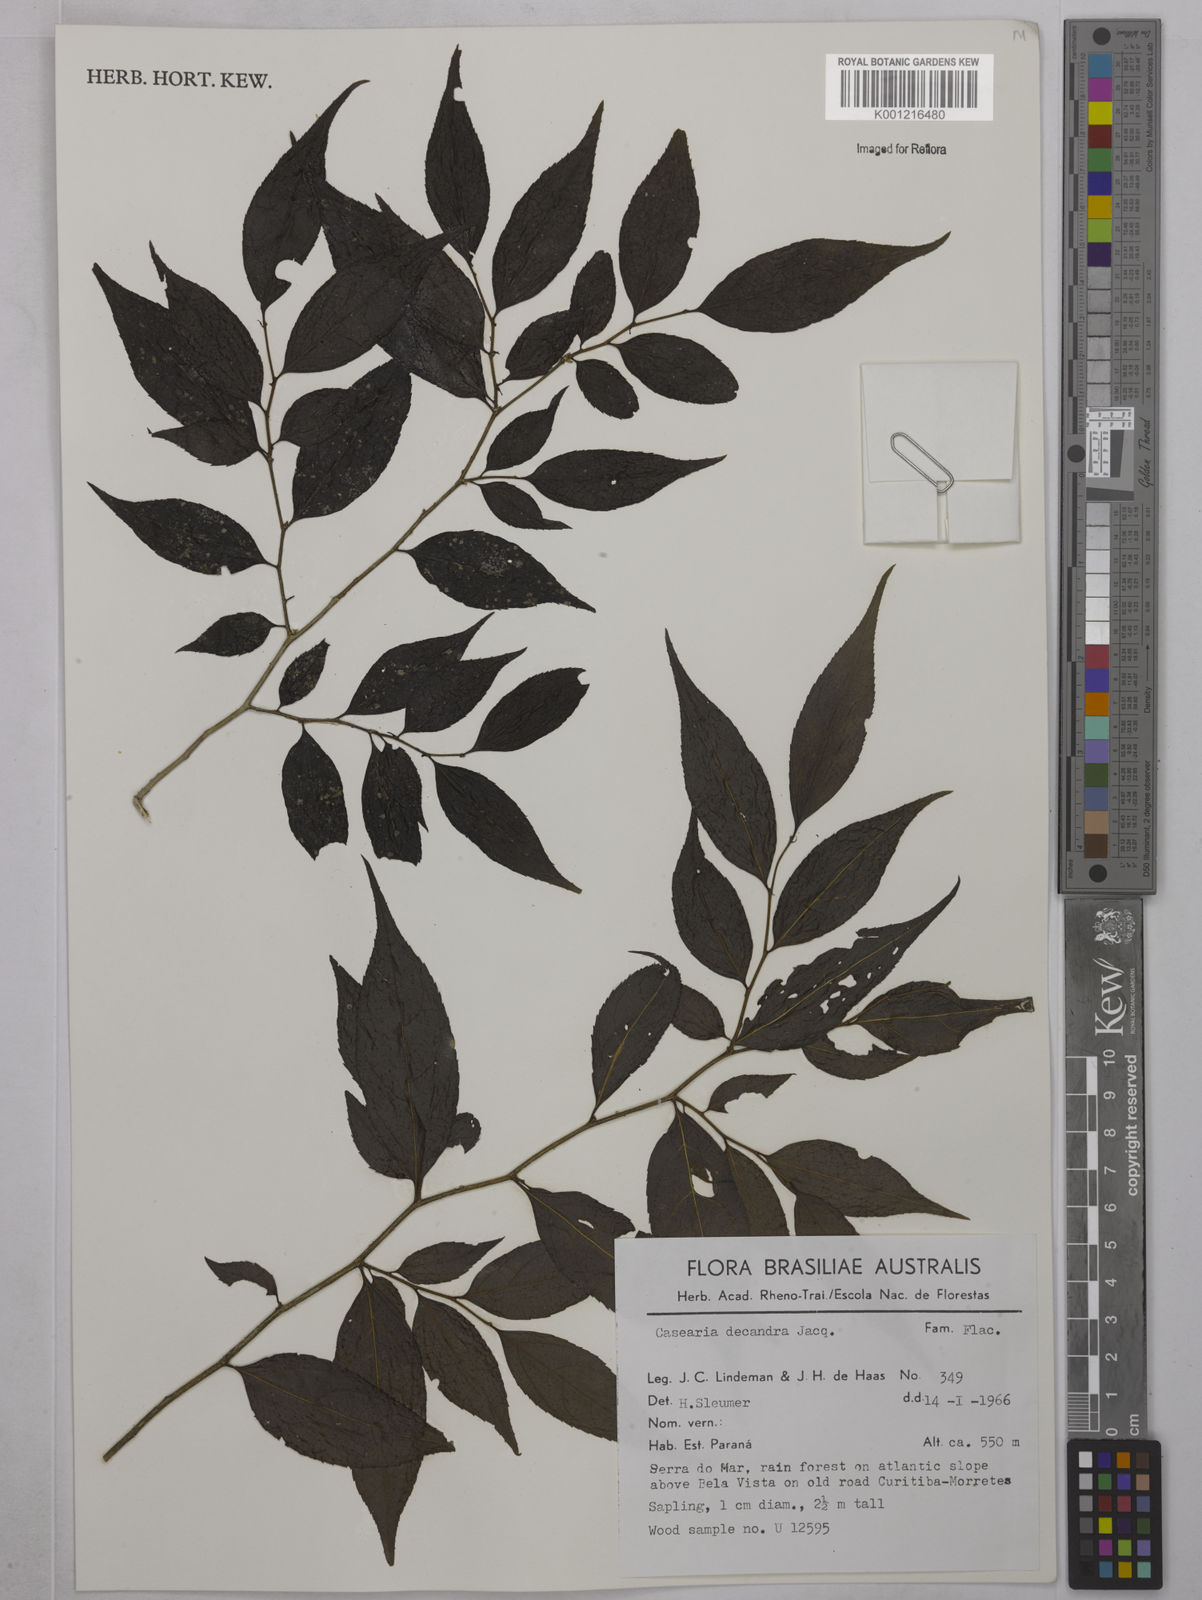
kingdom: Plantae
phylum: Tracheophyta
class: Magnoliopsida
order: Malpighiales
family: Salicaceae
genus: Casearia
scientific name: Casearia decandra
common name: Crack open
